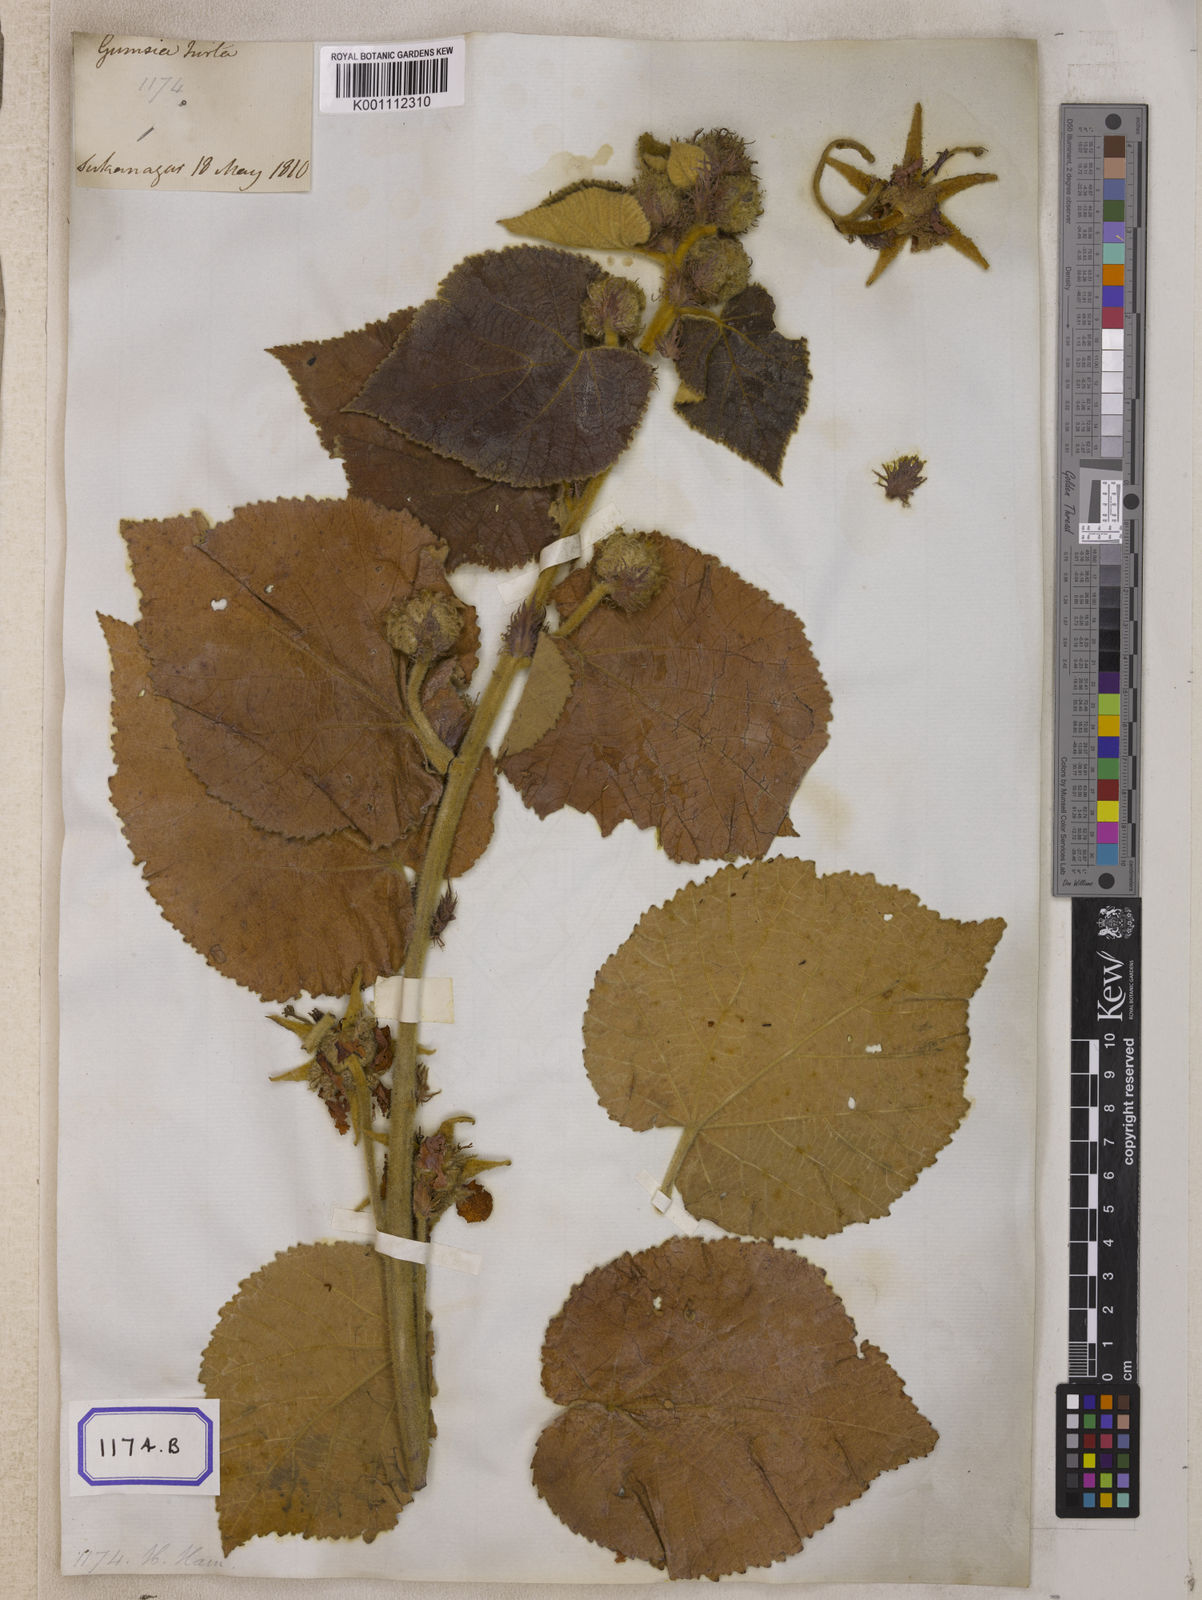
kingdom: Plantae
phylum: Tracheophyta
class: Magnoliopsida
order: Malvales
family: Malvaceae
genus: Eriolaena
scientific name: Eriolaena wallichii
